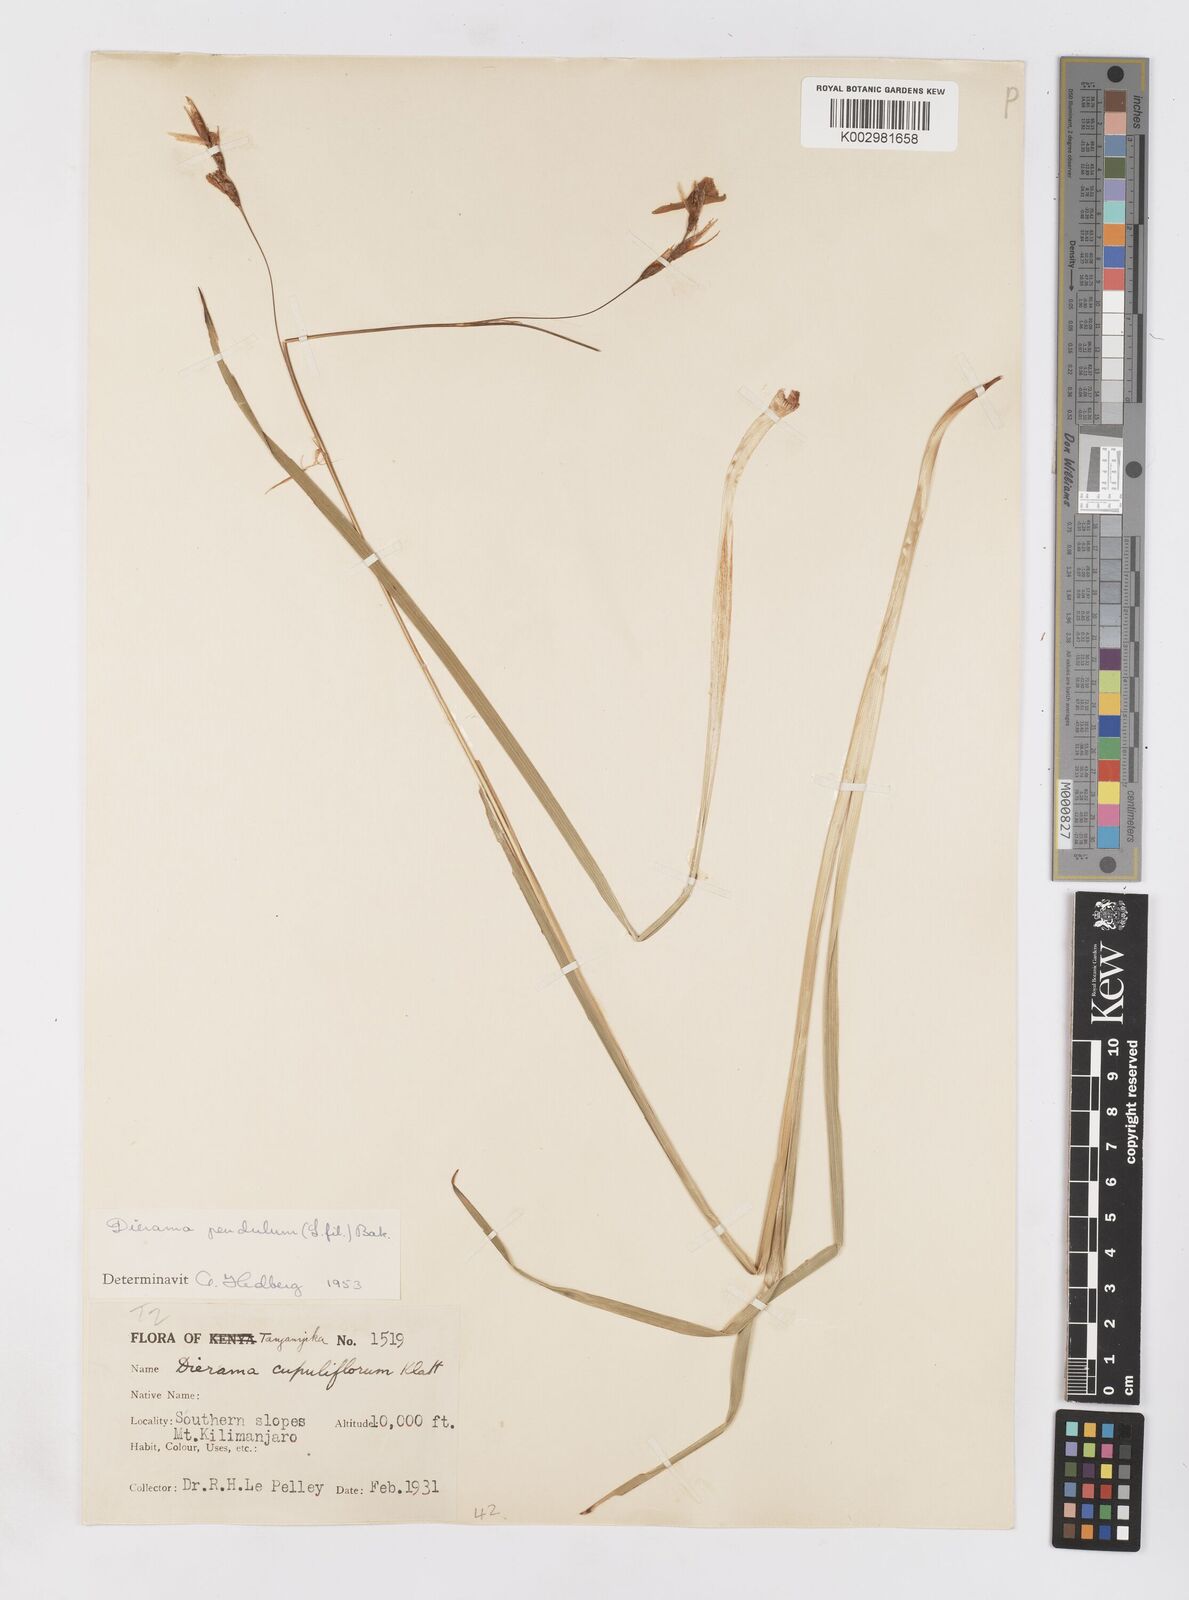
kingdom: Plantae
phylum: Tracheophyta
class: Liliopsida
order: Asparagales
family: Iridaceae
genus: Dierama
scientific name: Dierama cupuliflorum
